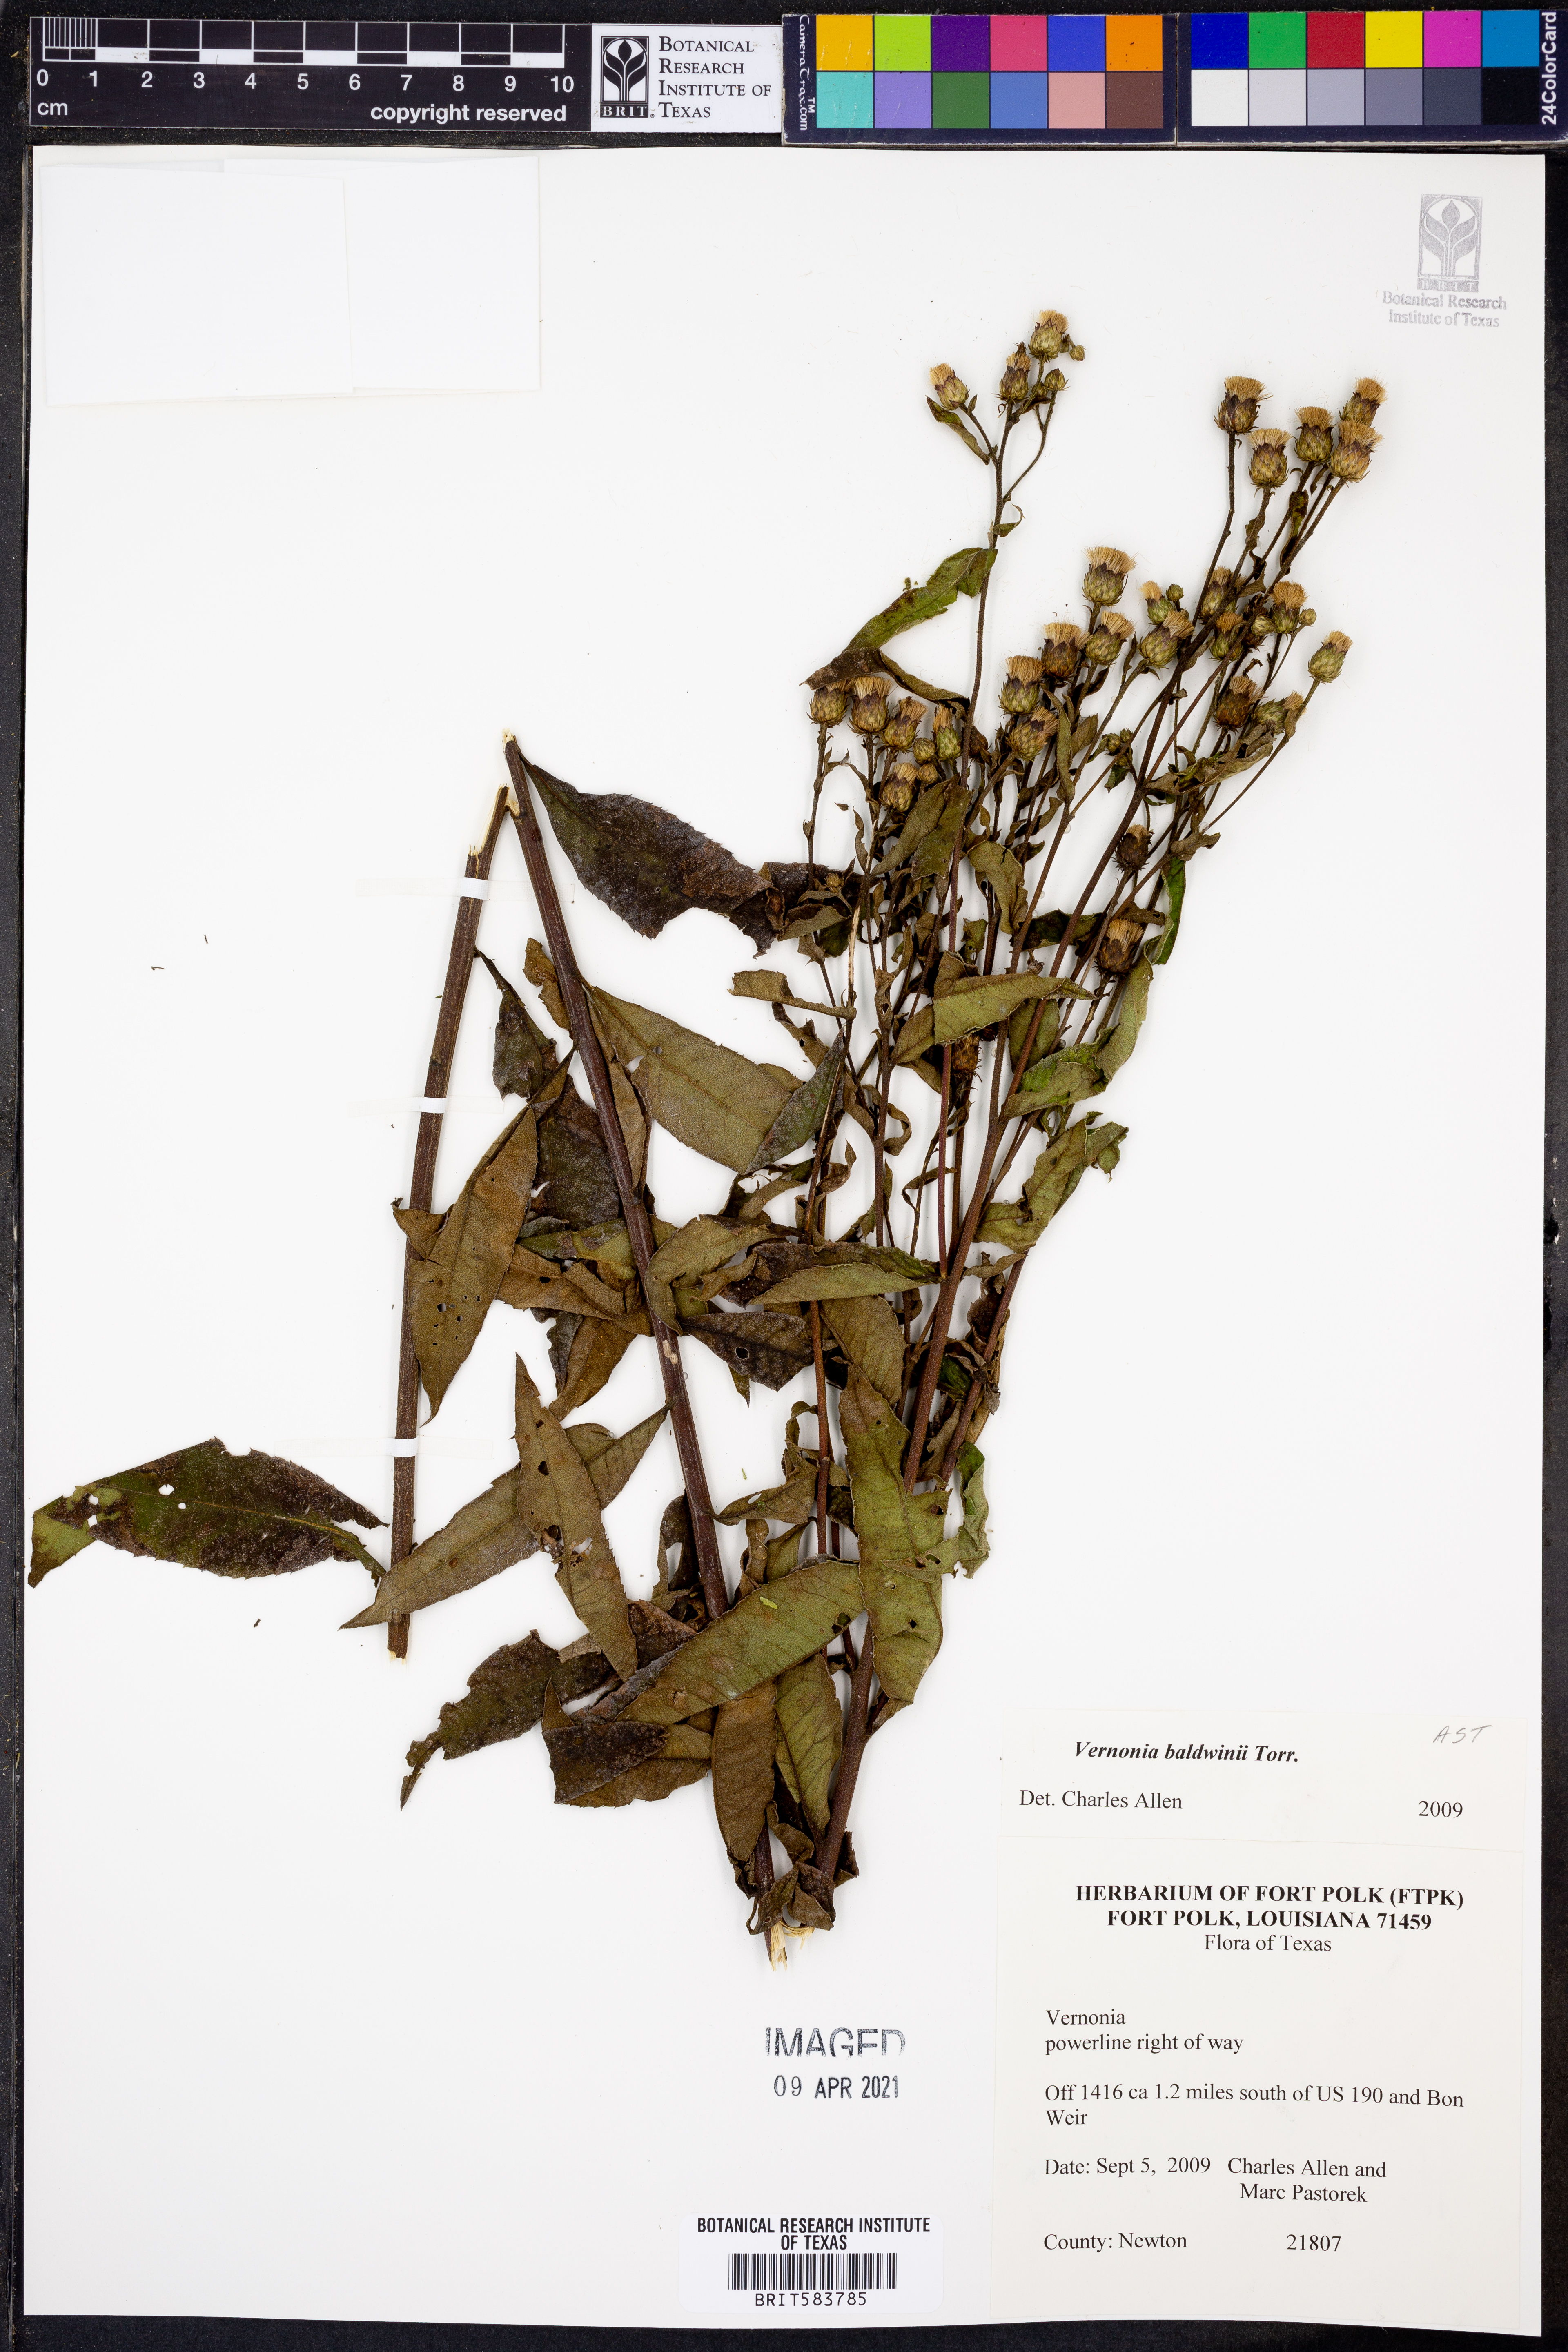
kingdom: Plantae
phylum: Tracheophyta
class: Magnoliopsida
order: Asterales
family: Asteraceae
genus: Vernonia
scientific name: Vernonia baldwinii
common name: Western ironweed
